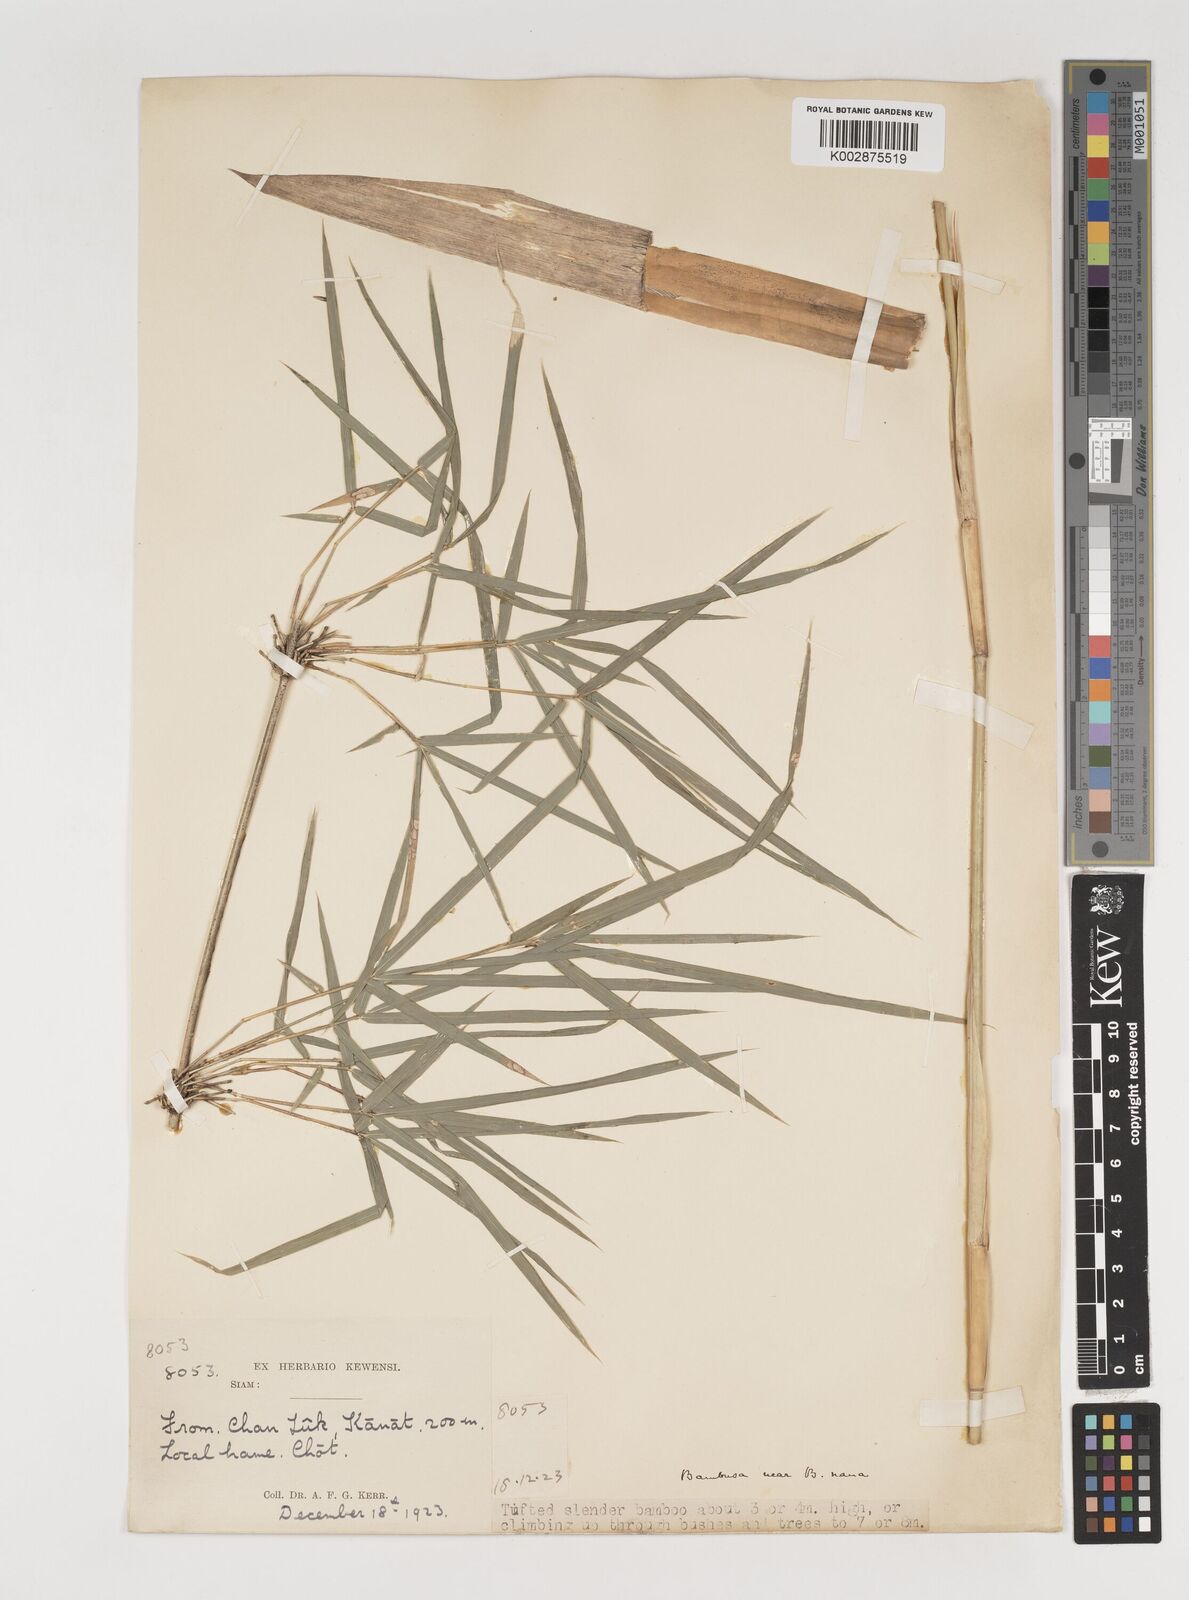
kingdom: Plantae
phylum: Tracheophyta
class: Liliopsida
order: Poales
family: Poaceae
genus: Vietnamosasa
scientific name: Vietnamosasa
